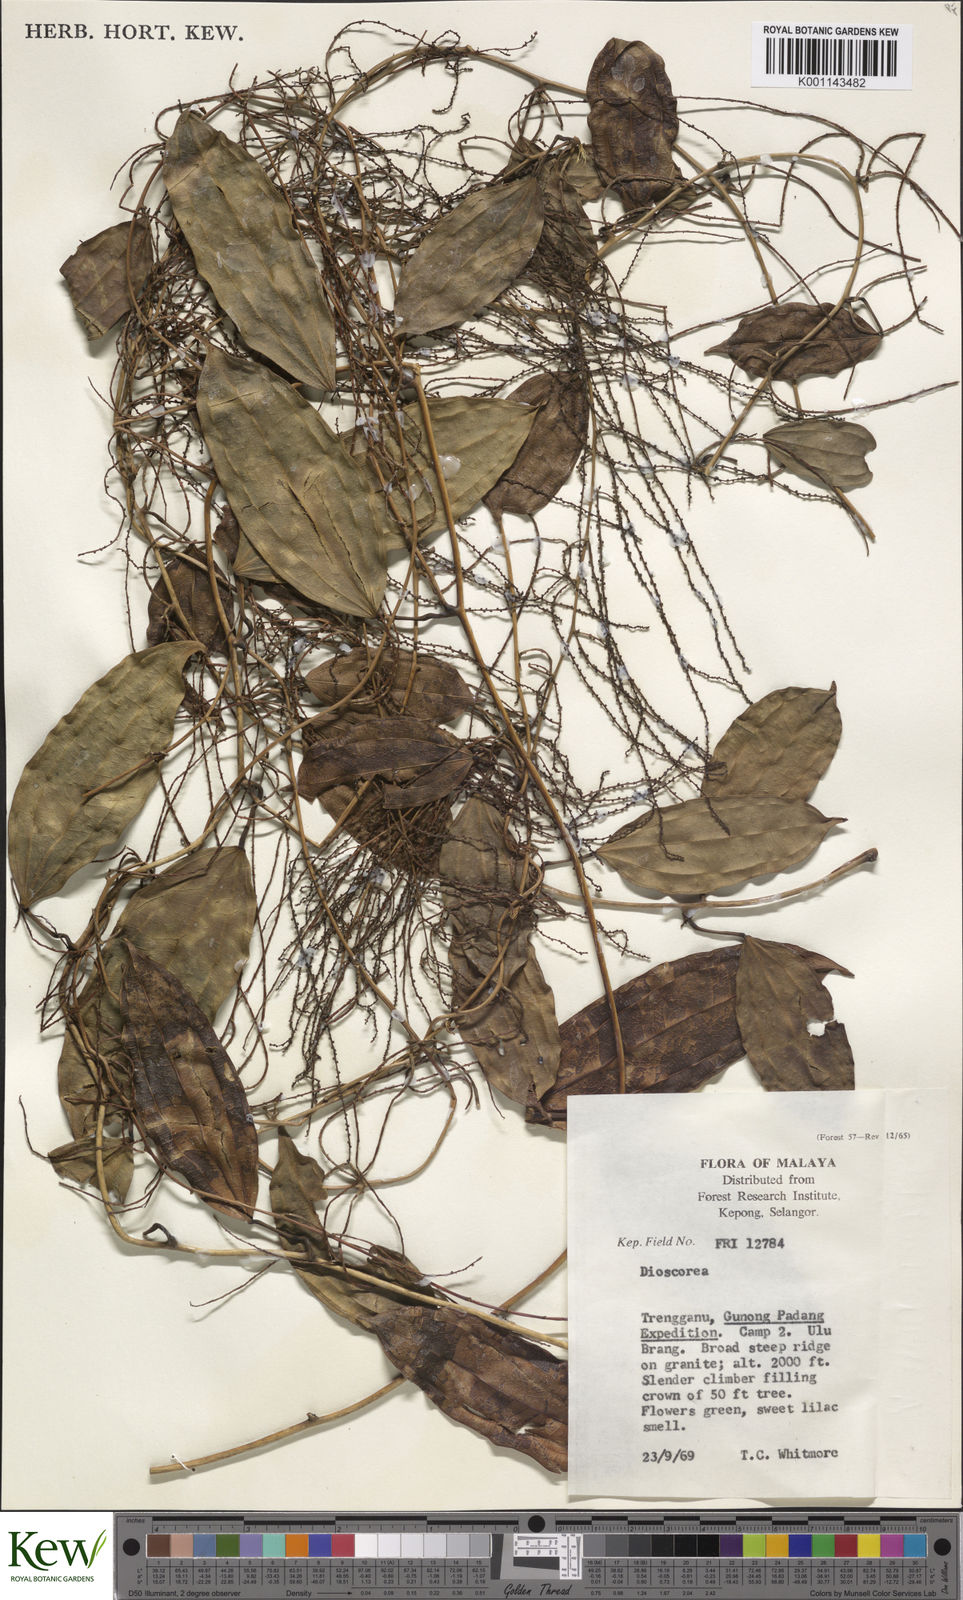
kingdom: Plantae
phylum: Tracheophyta
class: Liliopsida
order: Dioscoreales
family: Dioscoreaceae
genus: Dioscorea
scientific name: Dioscorea
